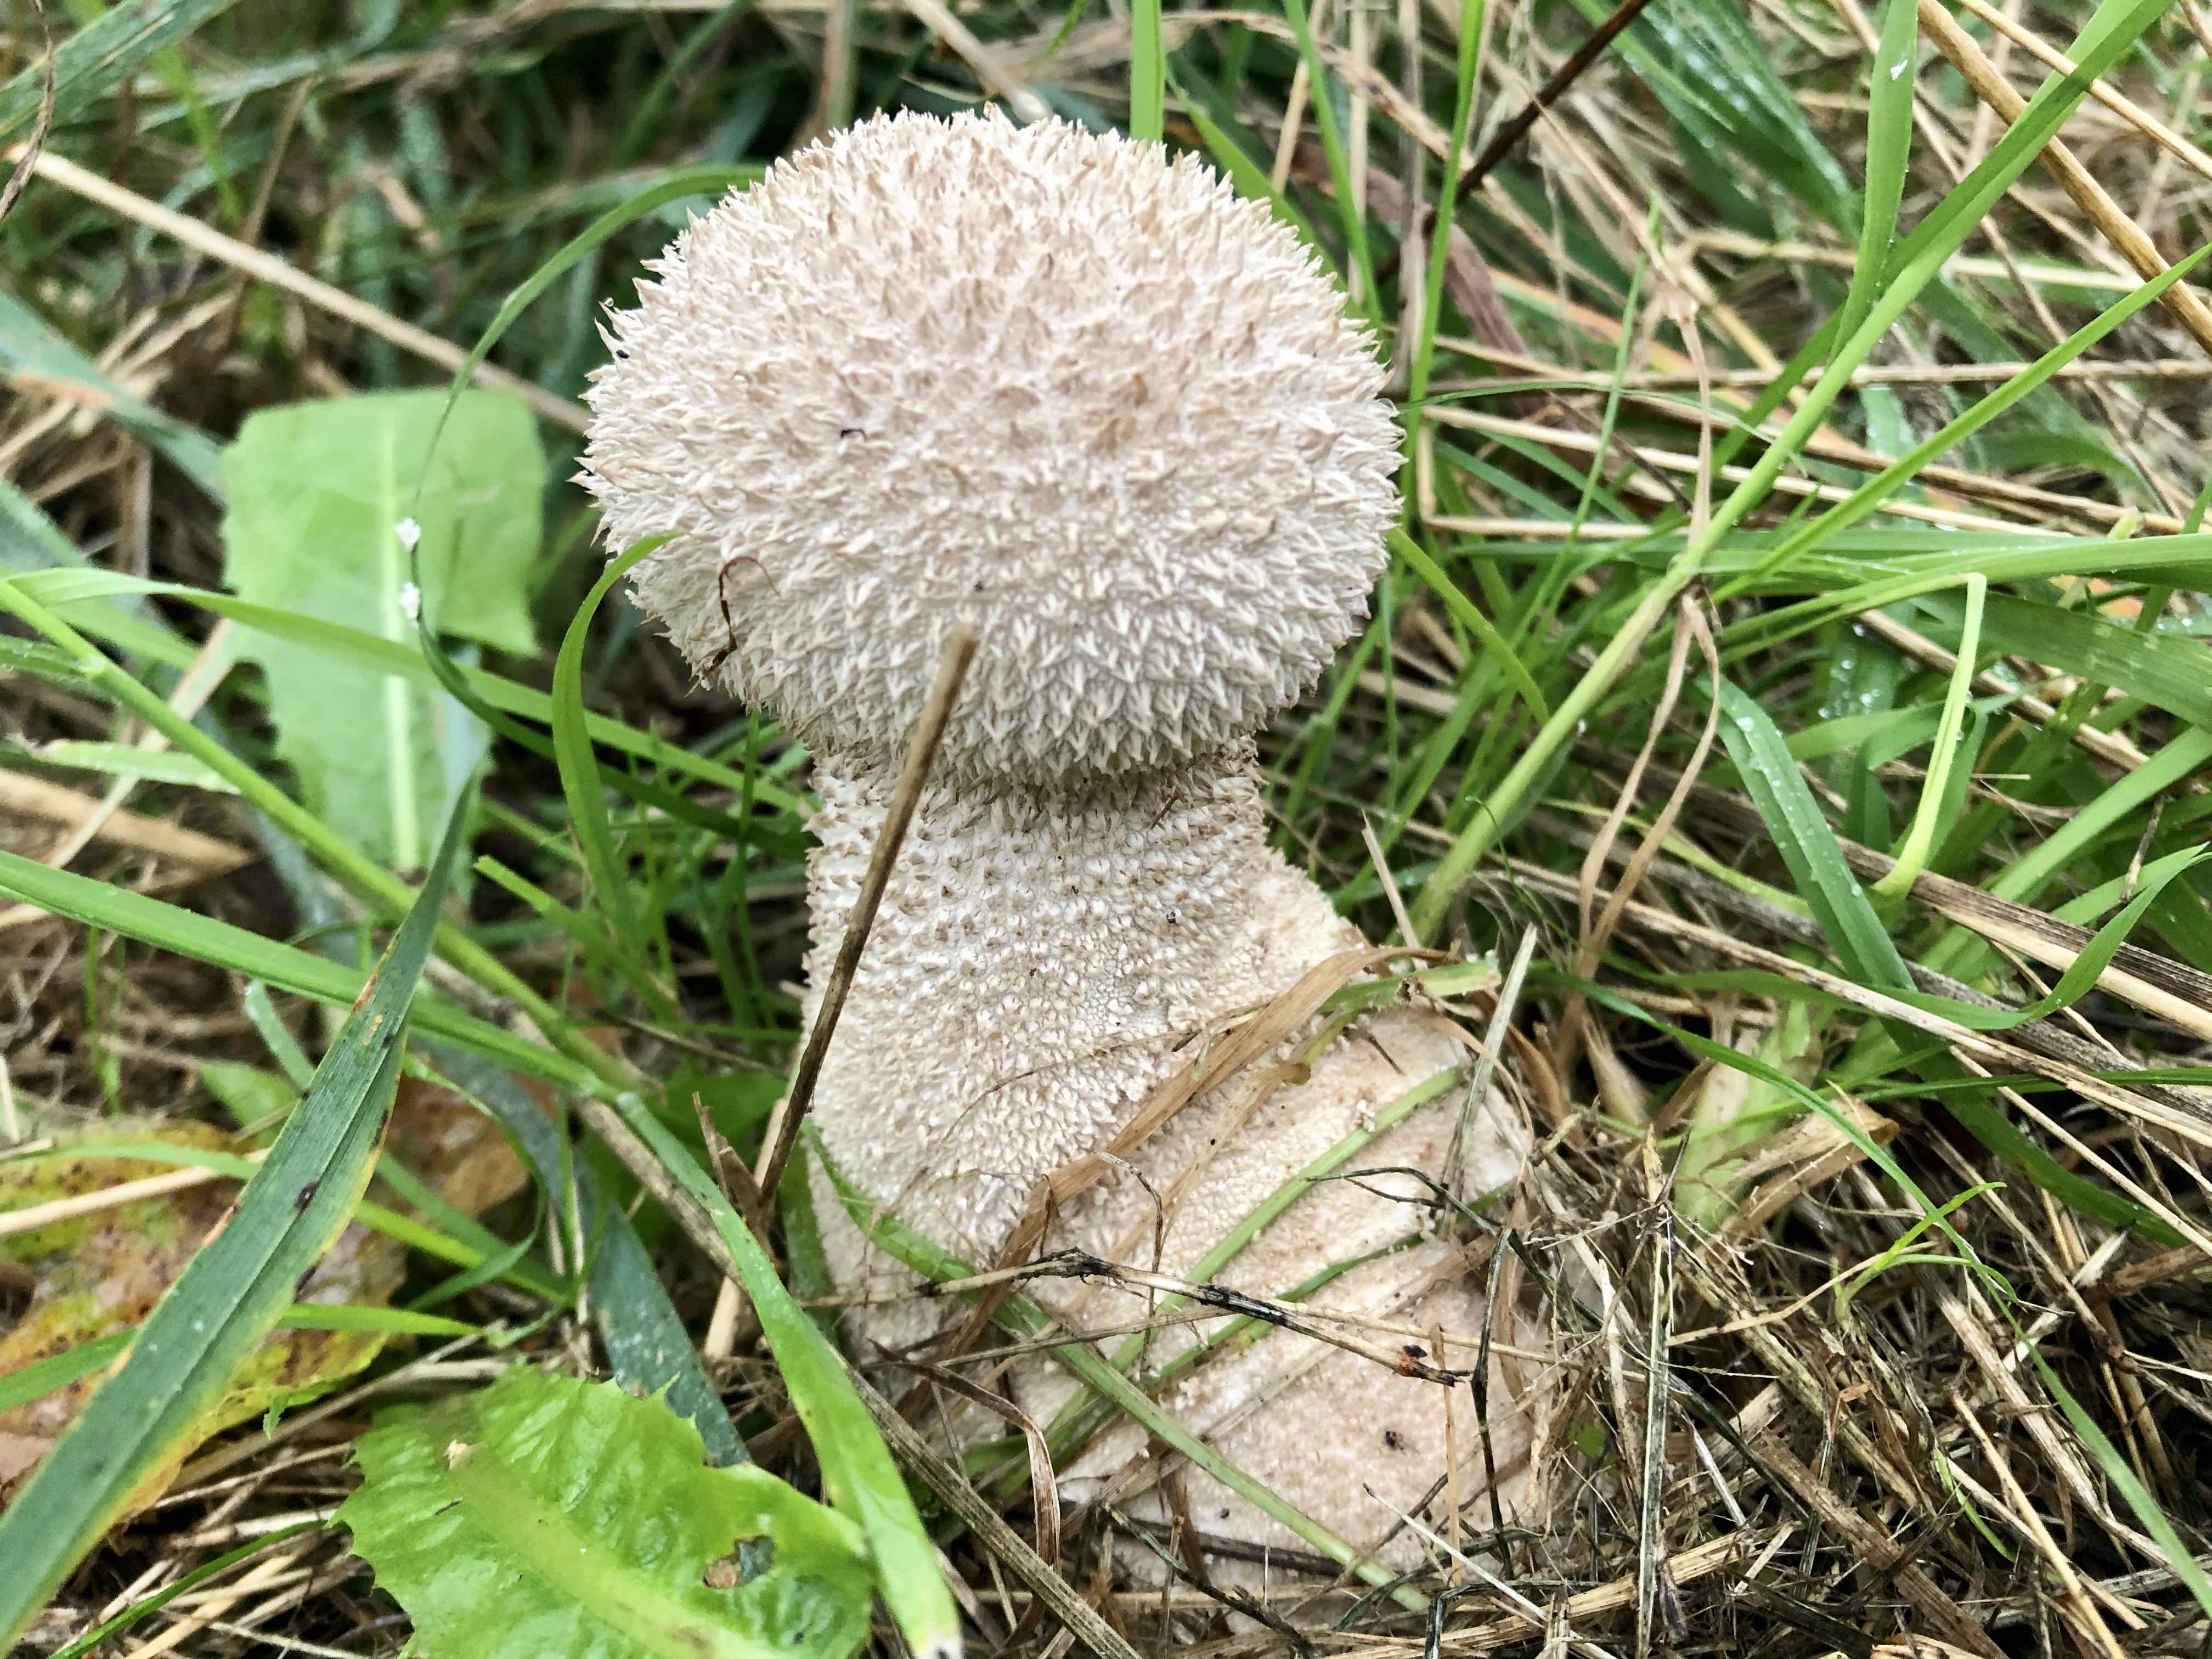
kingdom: Fungi
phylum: Basidiomycota
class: Agaricomycetes
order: Agaricales
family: Lycoperdaceae
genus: Lycoperdon
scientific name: Lycoperdon excipuliforme
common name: højstokket støvbold
